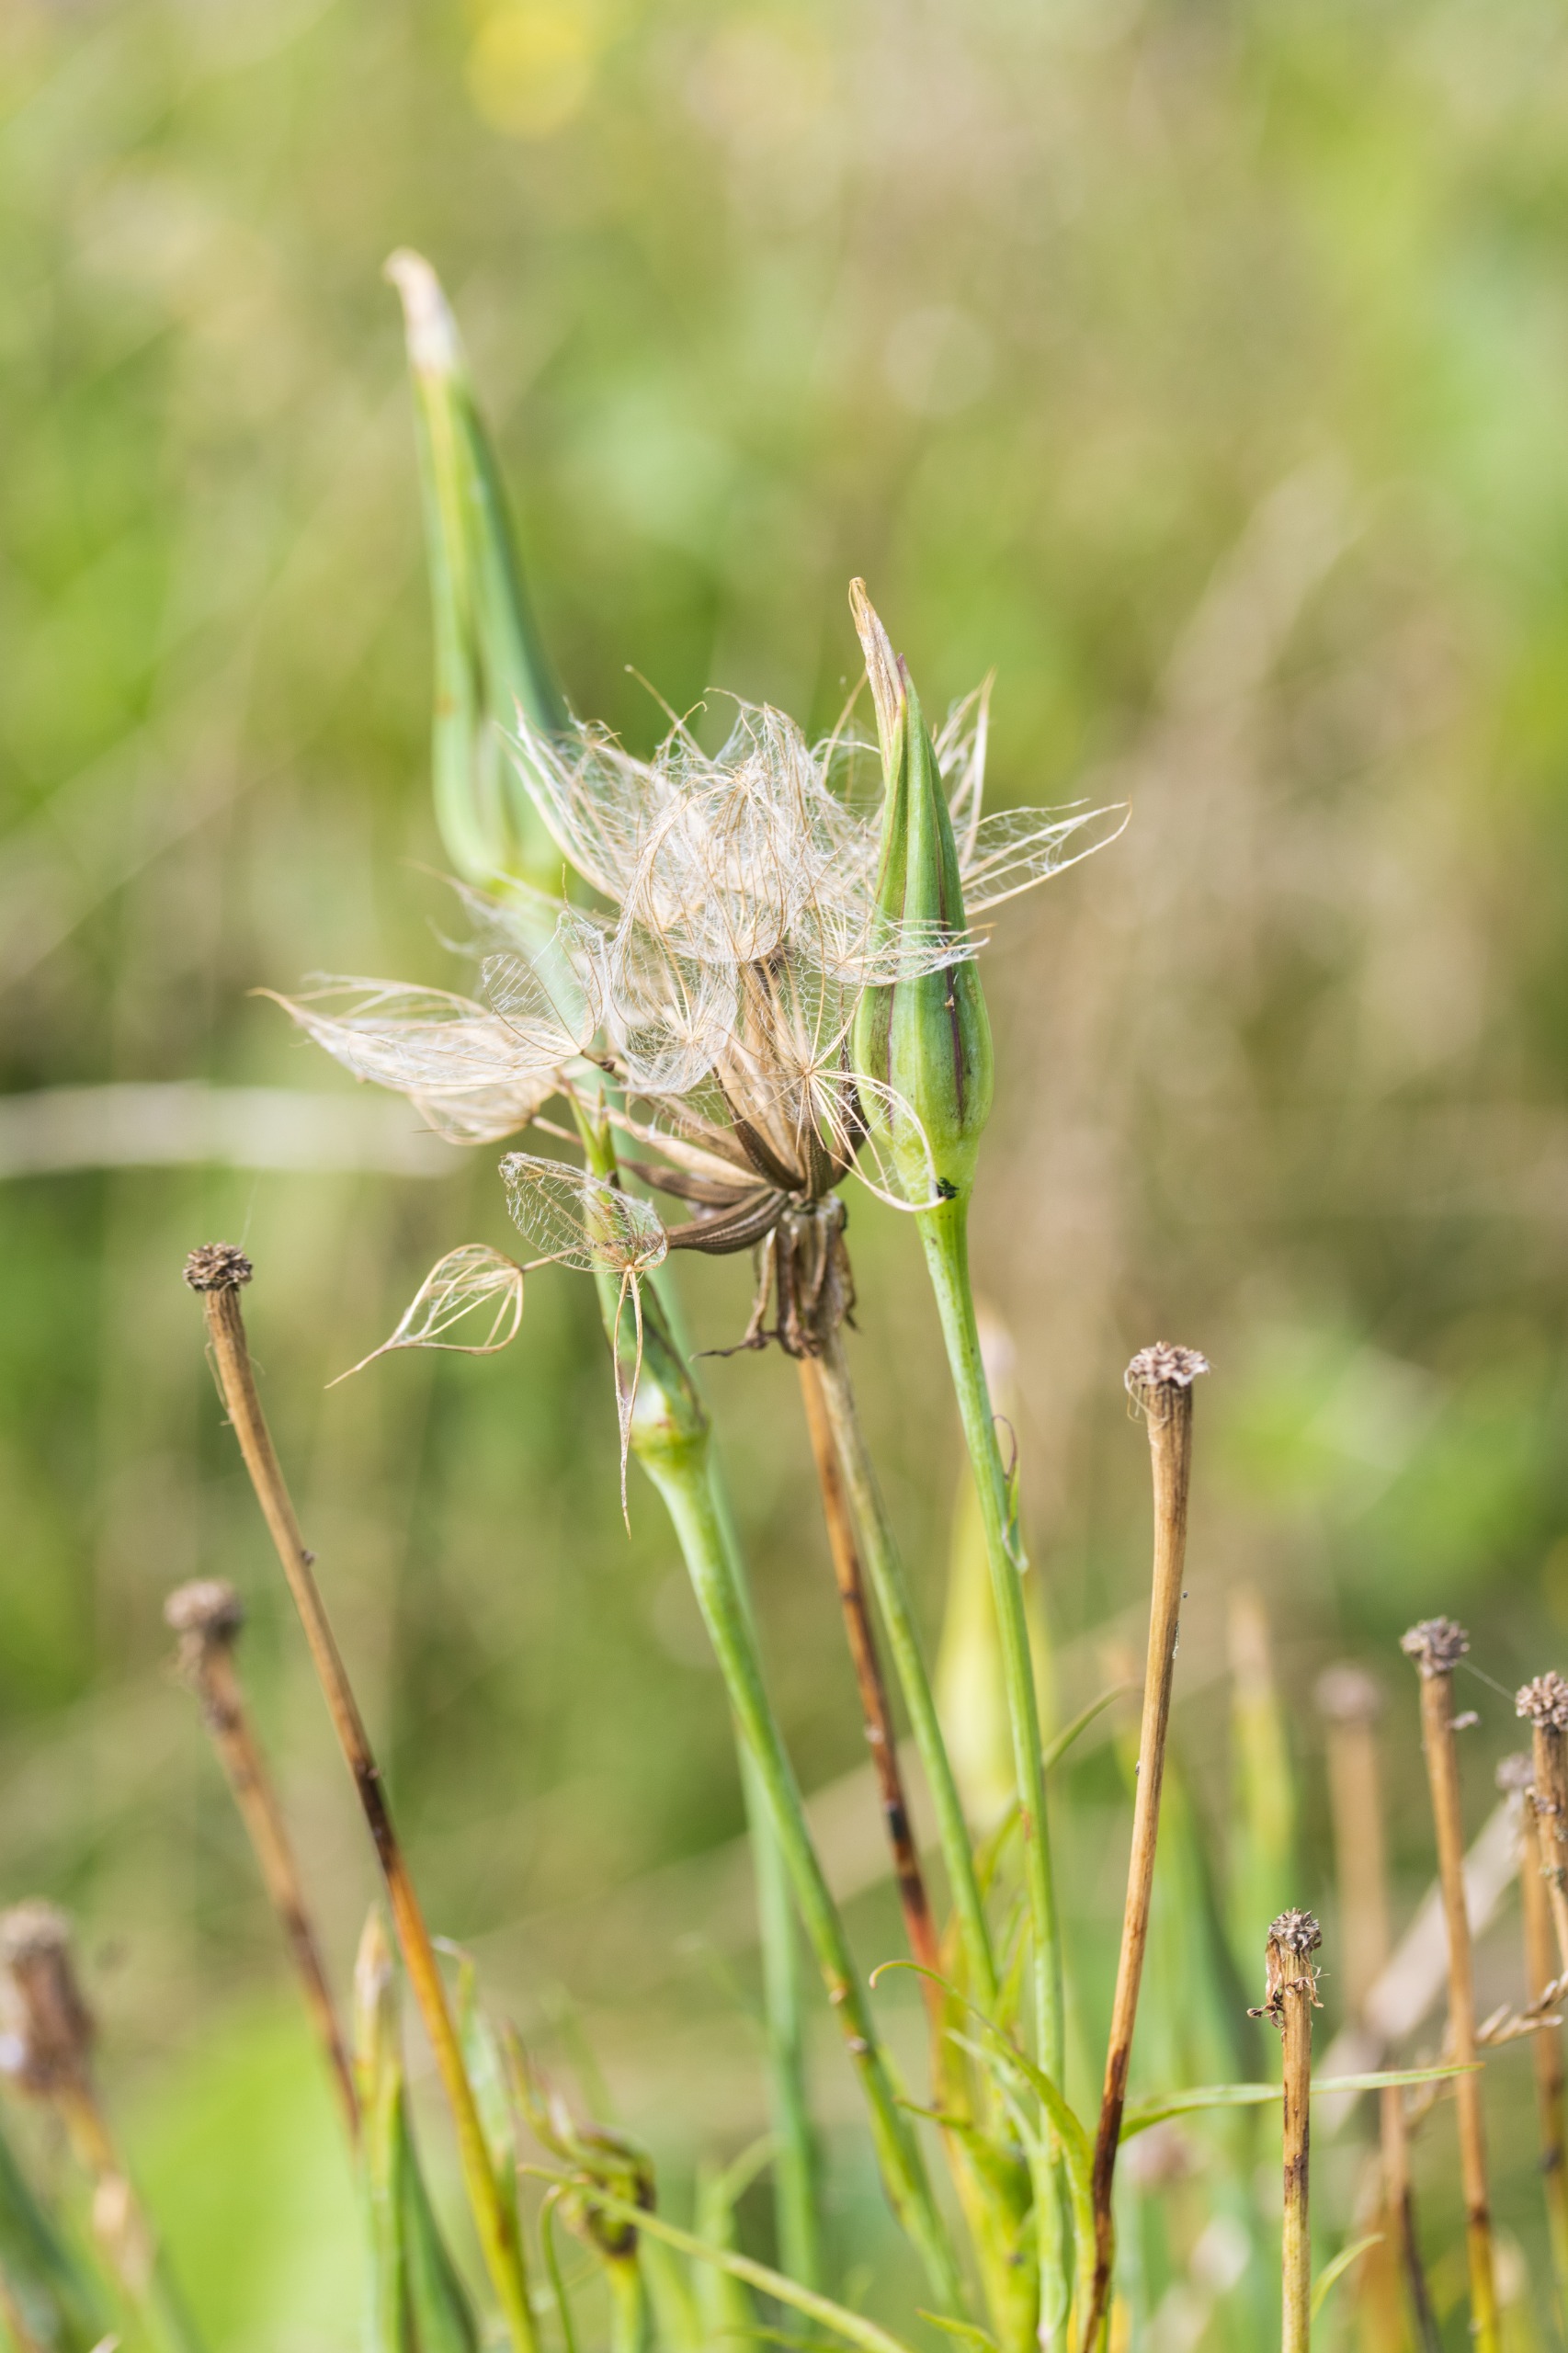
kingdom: Plantae
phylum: Tracheophyta
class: Magnoliopsida
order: Asterales
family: Asteraceae
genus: Tragopogon
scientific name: Tragopogon minor
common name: Småkronet gedeskæg
